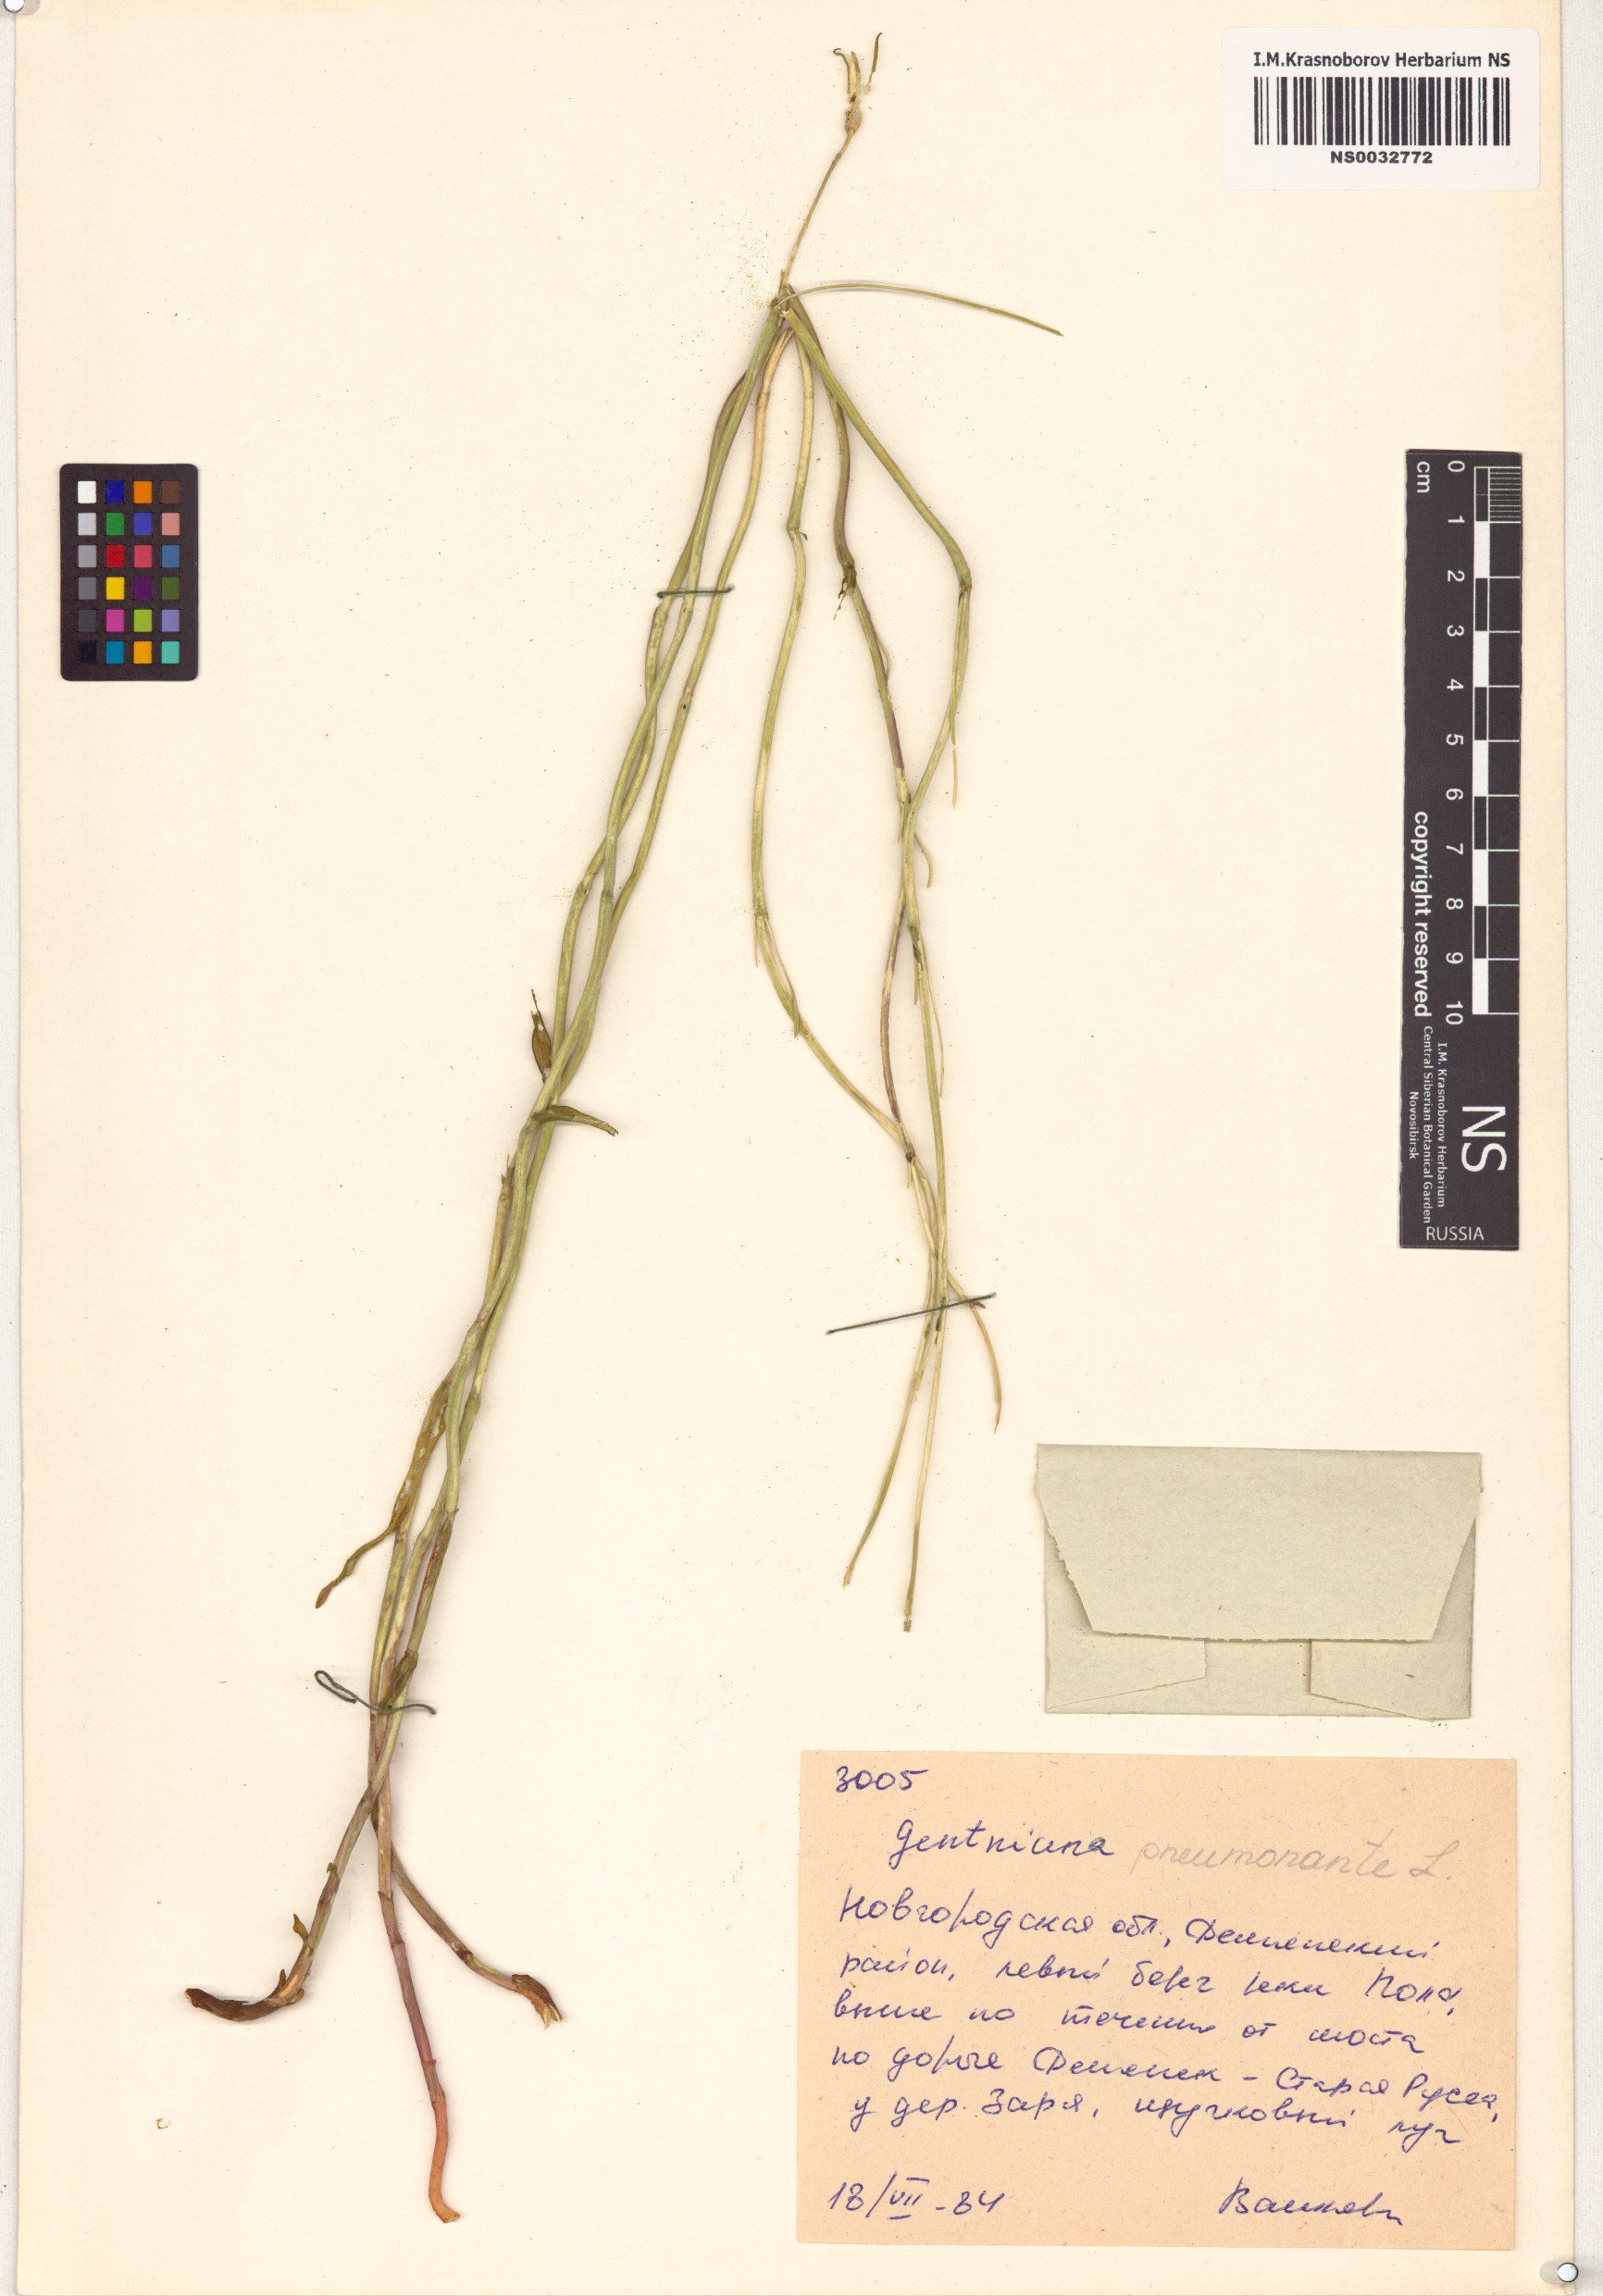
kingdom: Plantae
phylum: Tracheophyta
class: Magnoliopsida
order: Gentianales
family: Gentianaceae
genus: Gentiana
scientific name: Gentiana pneumonanthe
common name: Marsh gentian
